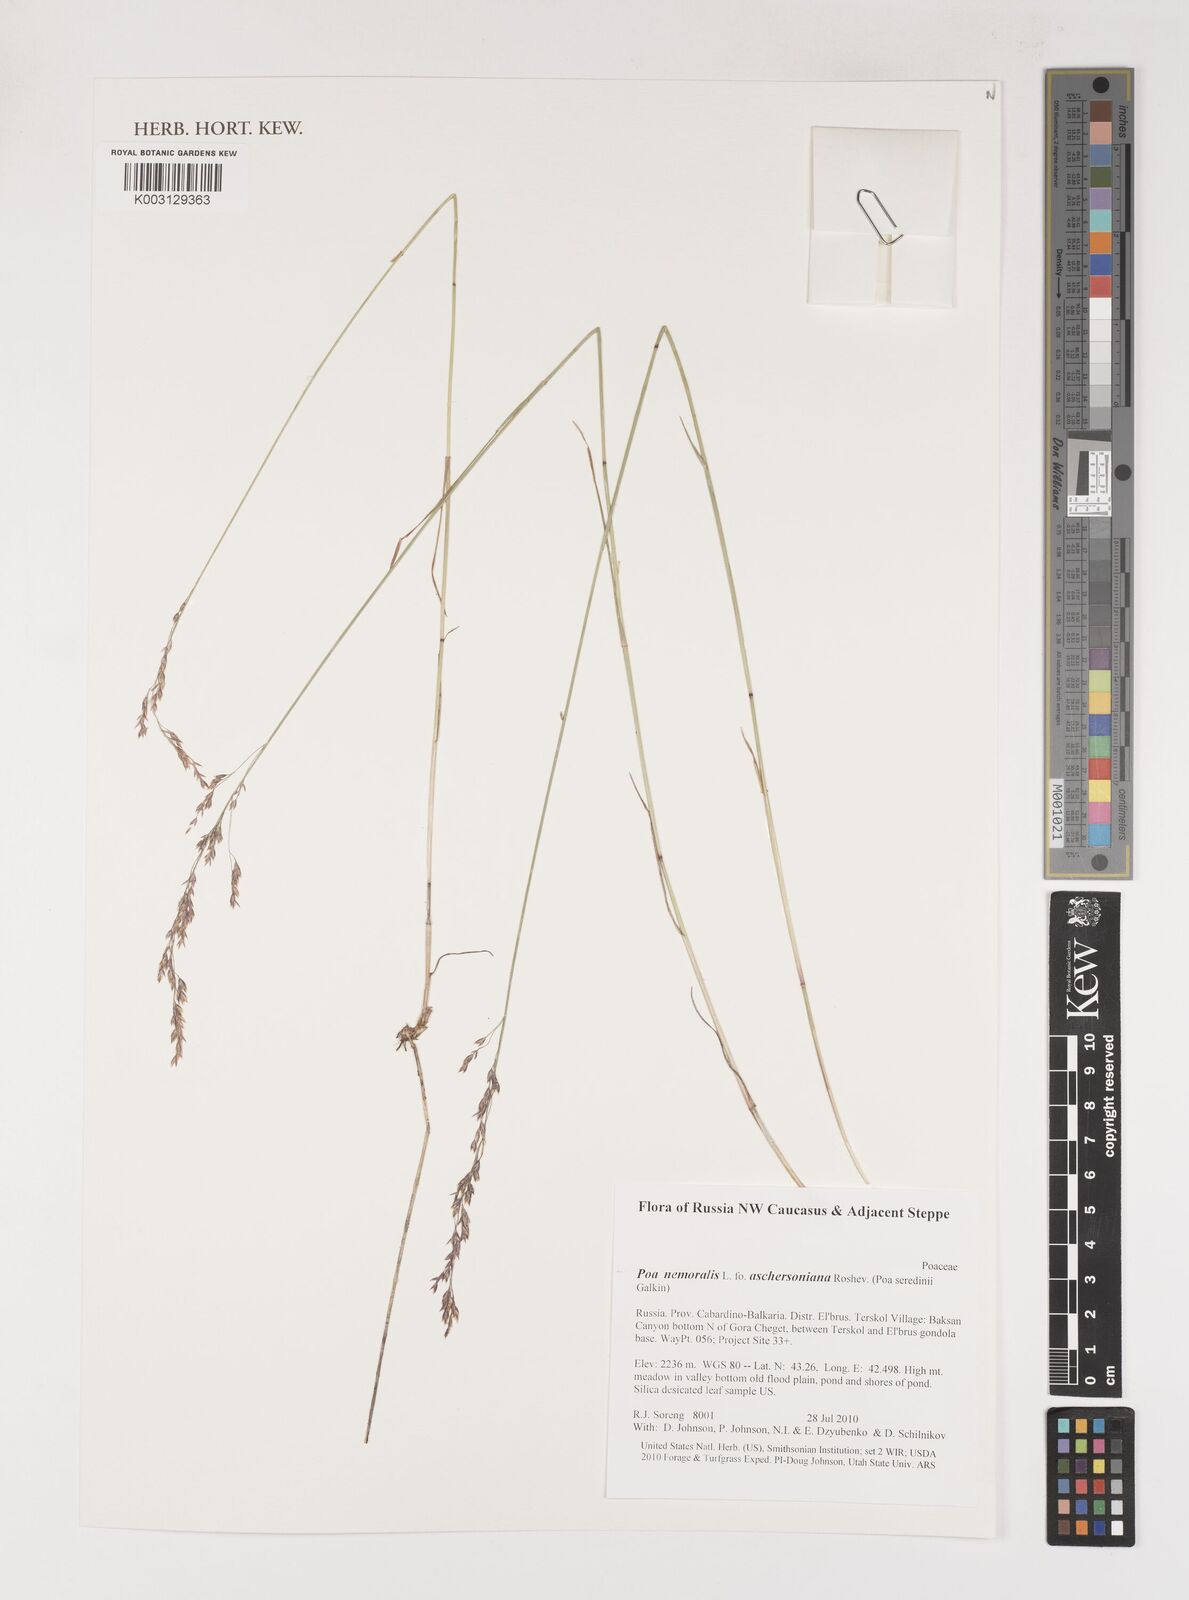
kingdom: Plantae
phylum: Tracheophyta
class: Liliopsida
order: Poales
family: Poaceae
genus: Poa
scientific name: Poa palustris
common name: Swamp meadow-grass
